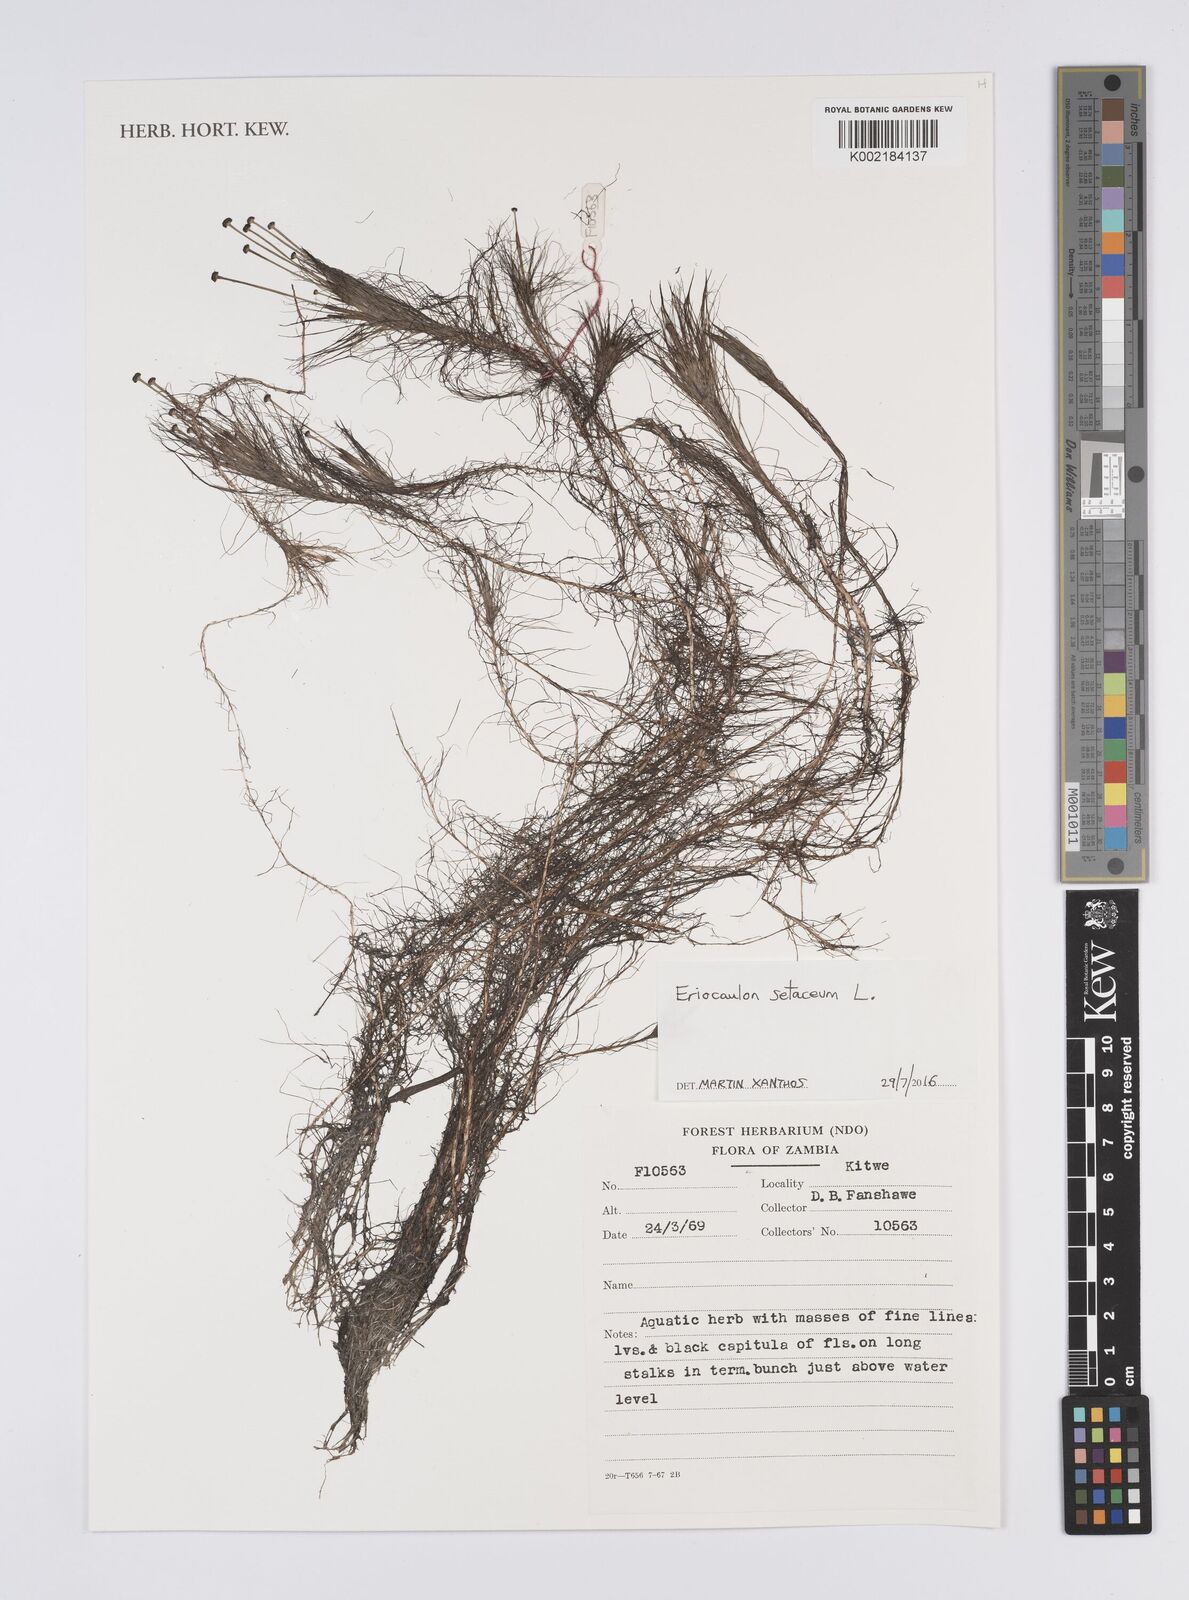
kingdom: Plantae
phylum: Tracheophyta
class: Liliopsida
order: Poales
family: Eriocaulaceae
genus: Eriocaulon
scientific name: Eriocaulon setaceum
